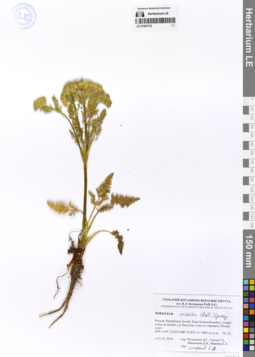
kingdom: Plantae
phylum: Tracheophyta
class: Magnoliopsida
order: Apiales
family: Apiaceae
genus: Schulzia
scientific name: Schulzia crinita
